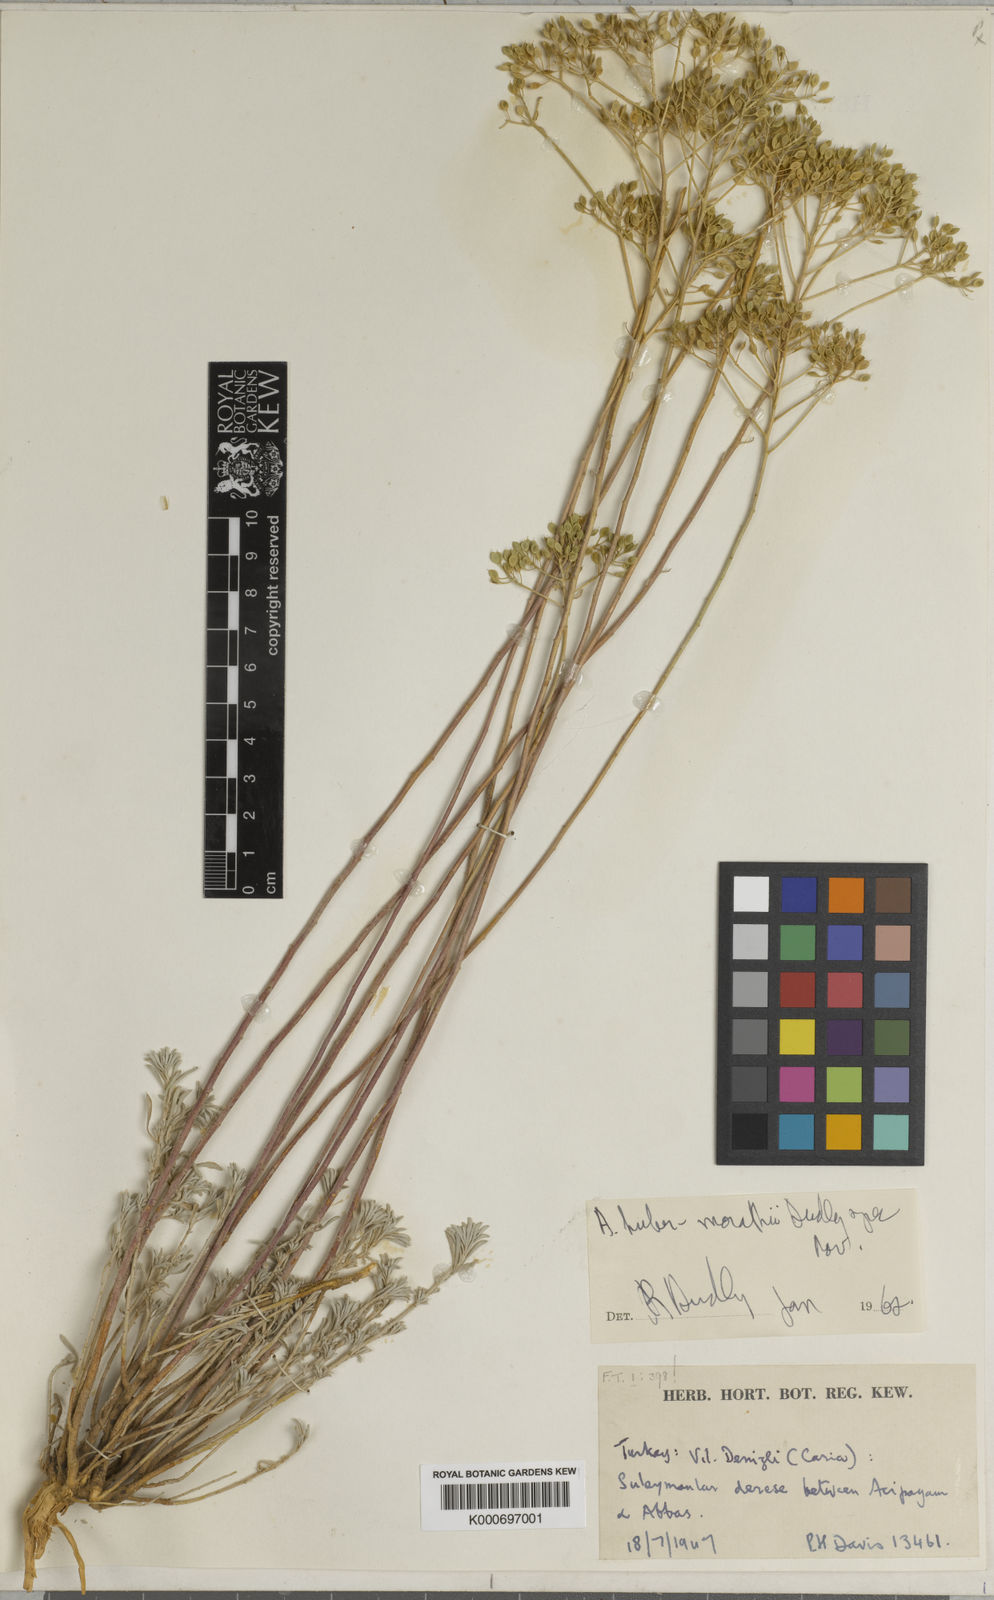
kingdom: Plantae
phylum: Tracheophyta
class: Magnoliopsida
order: Brassicales
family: Brassicaceae
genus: Odontarrhena
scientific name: Odontarrhena huber-morathii
